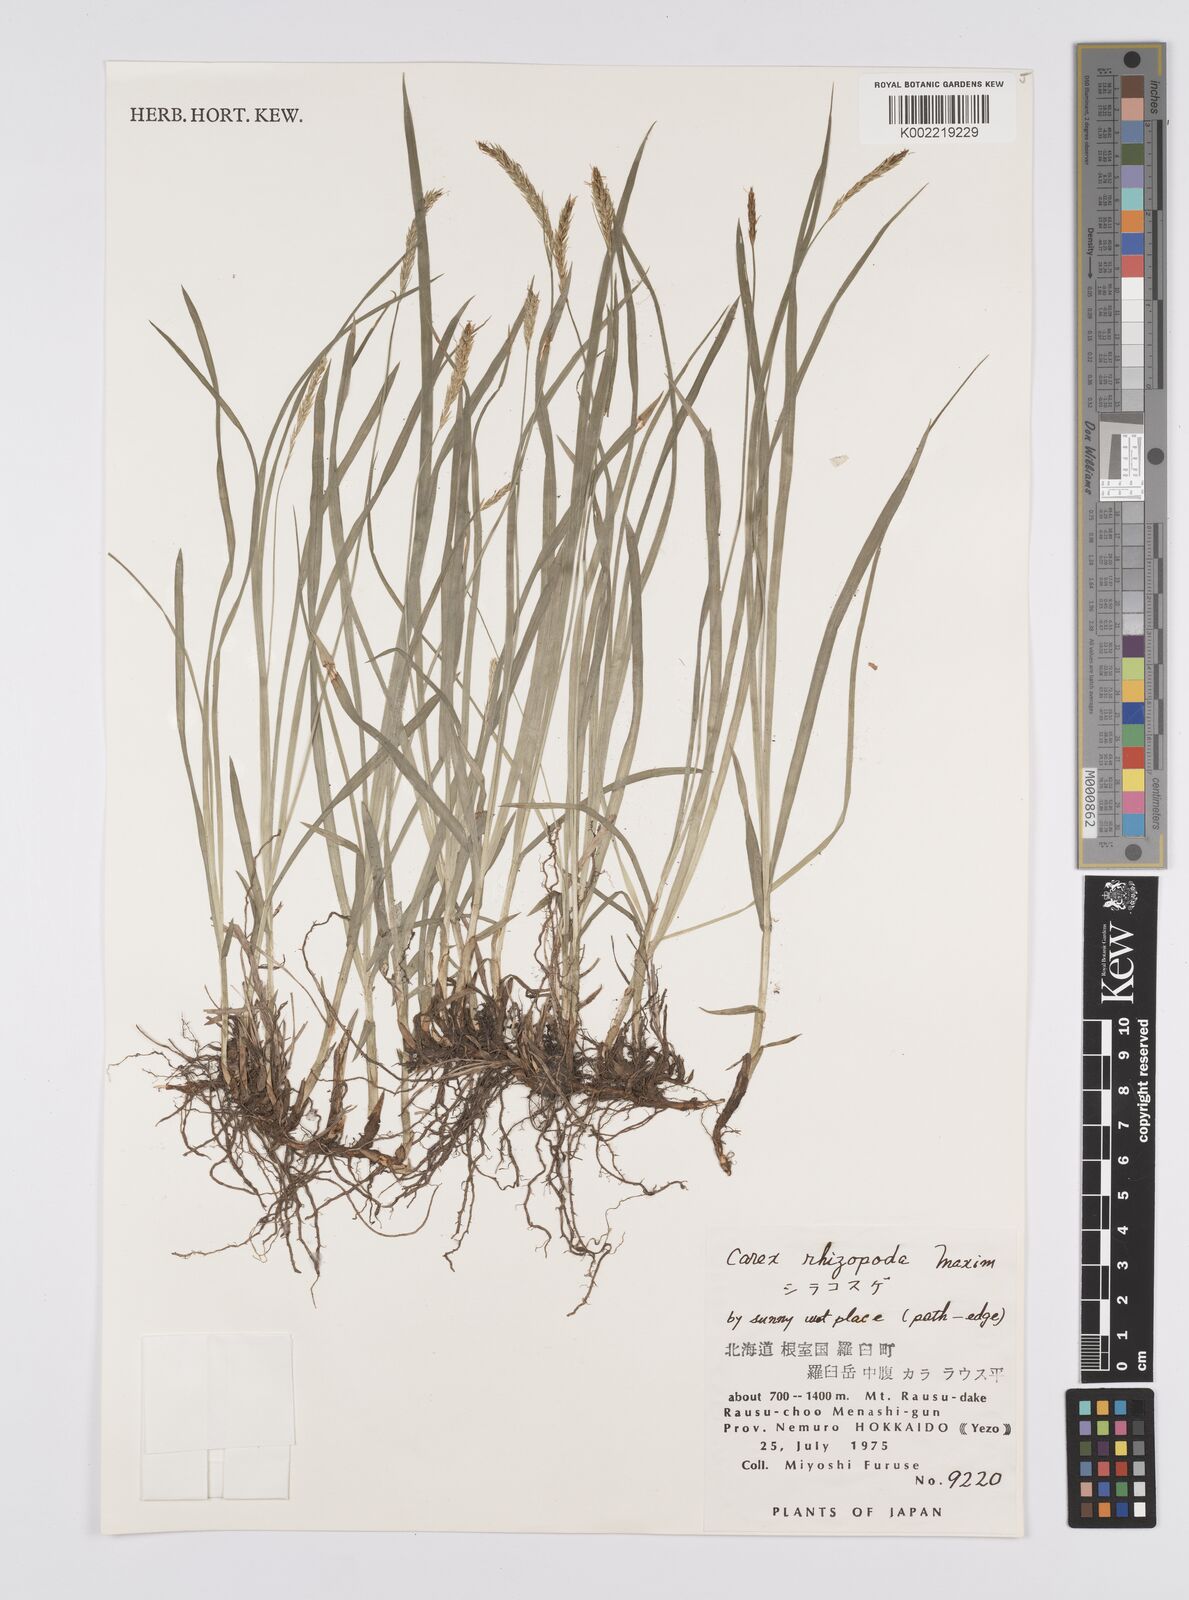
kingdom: Plantae
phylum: Tracheophyta
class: Liliopsida
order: Poales
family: Cyperaceae
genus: Carex
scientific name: Carex rhizopoda
